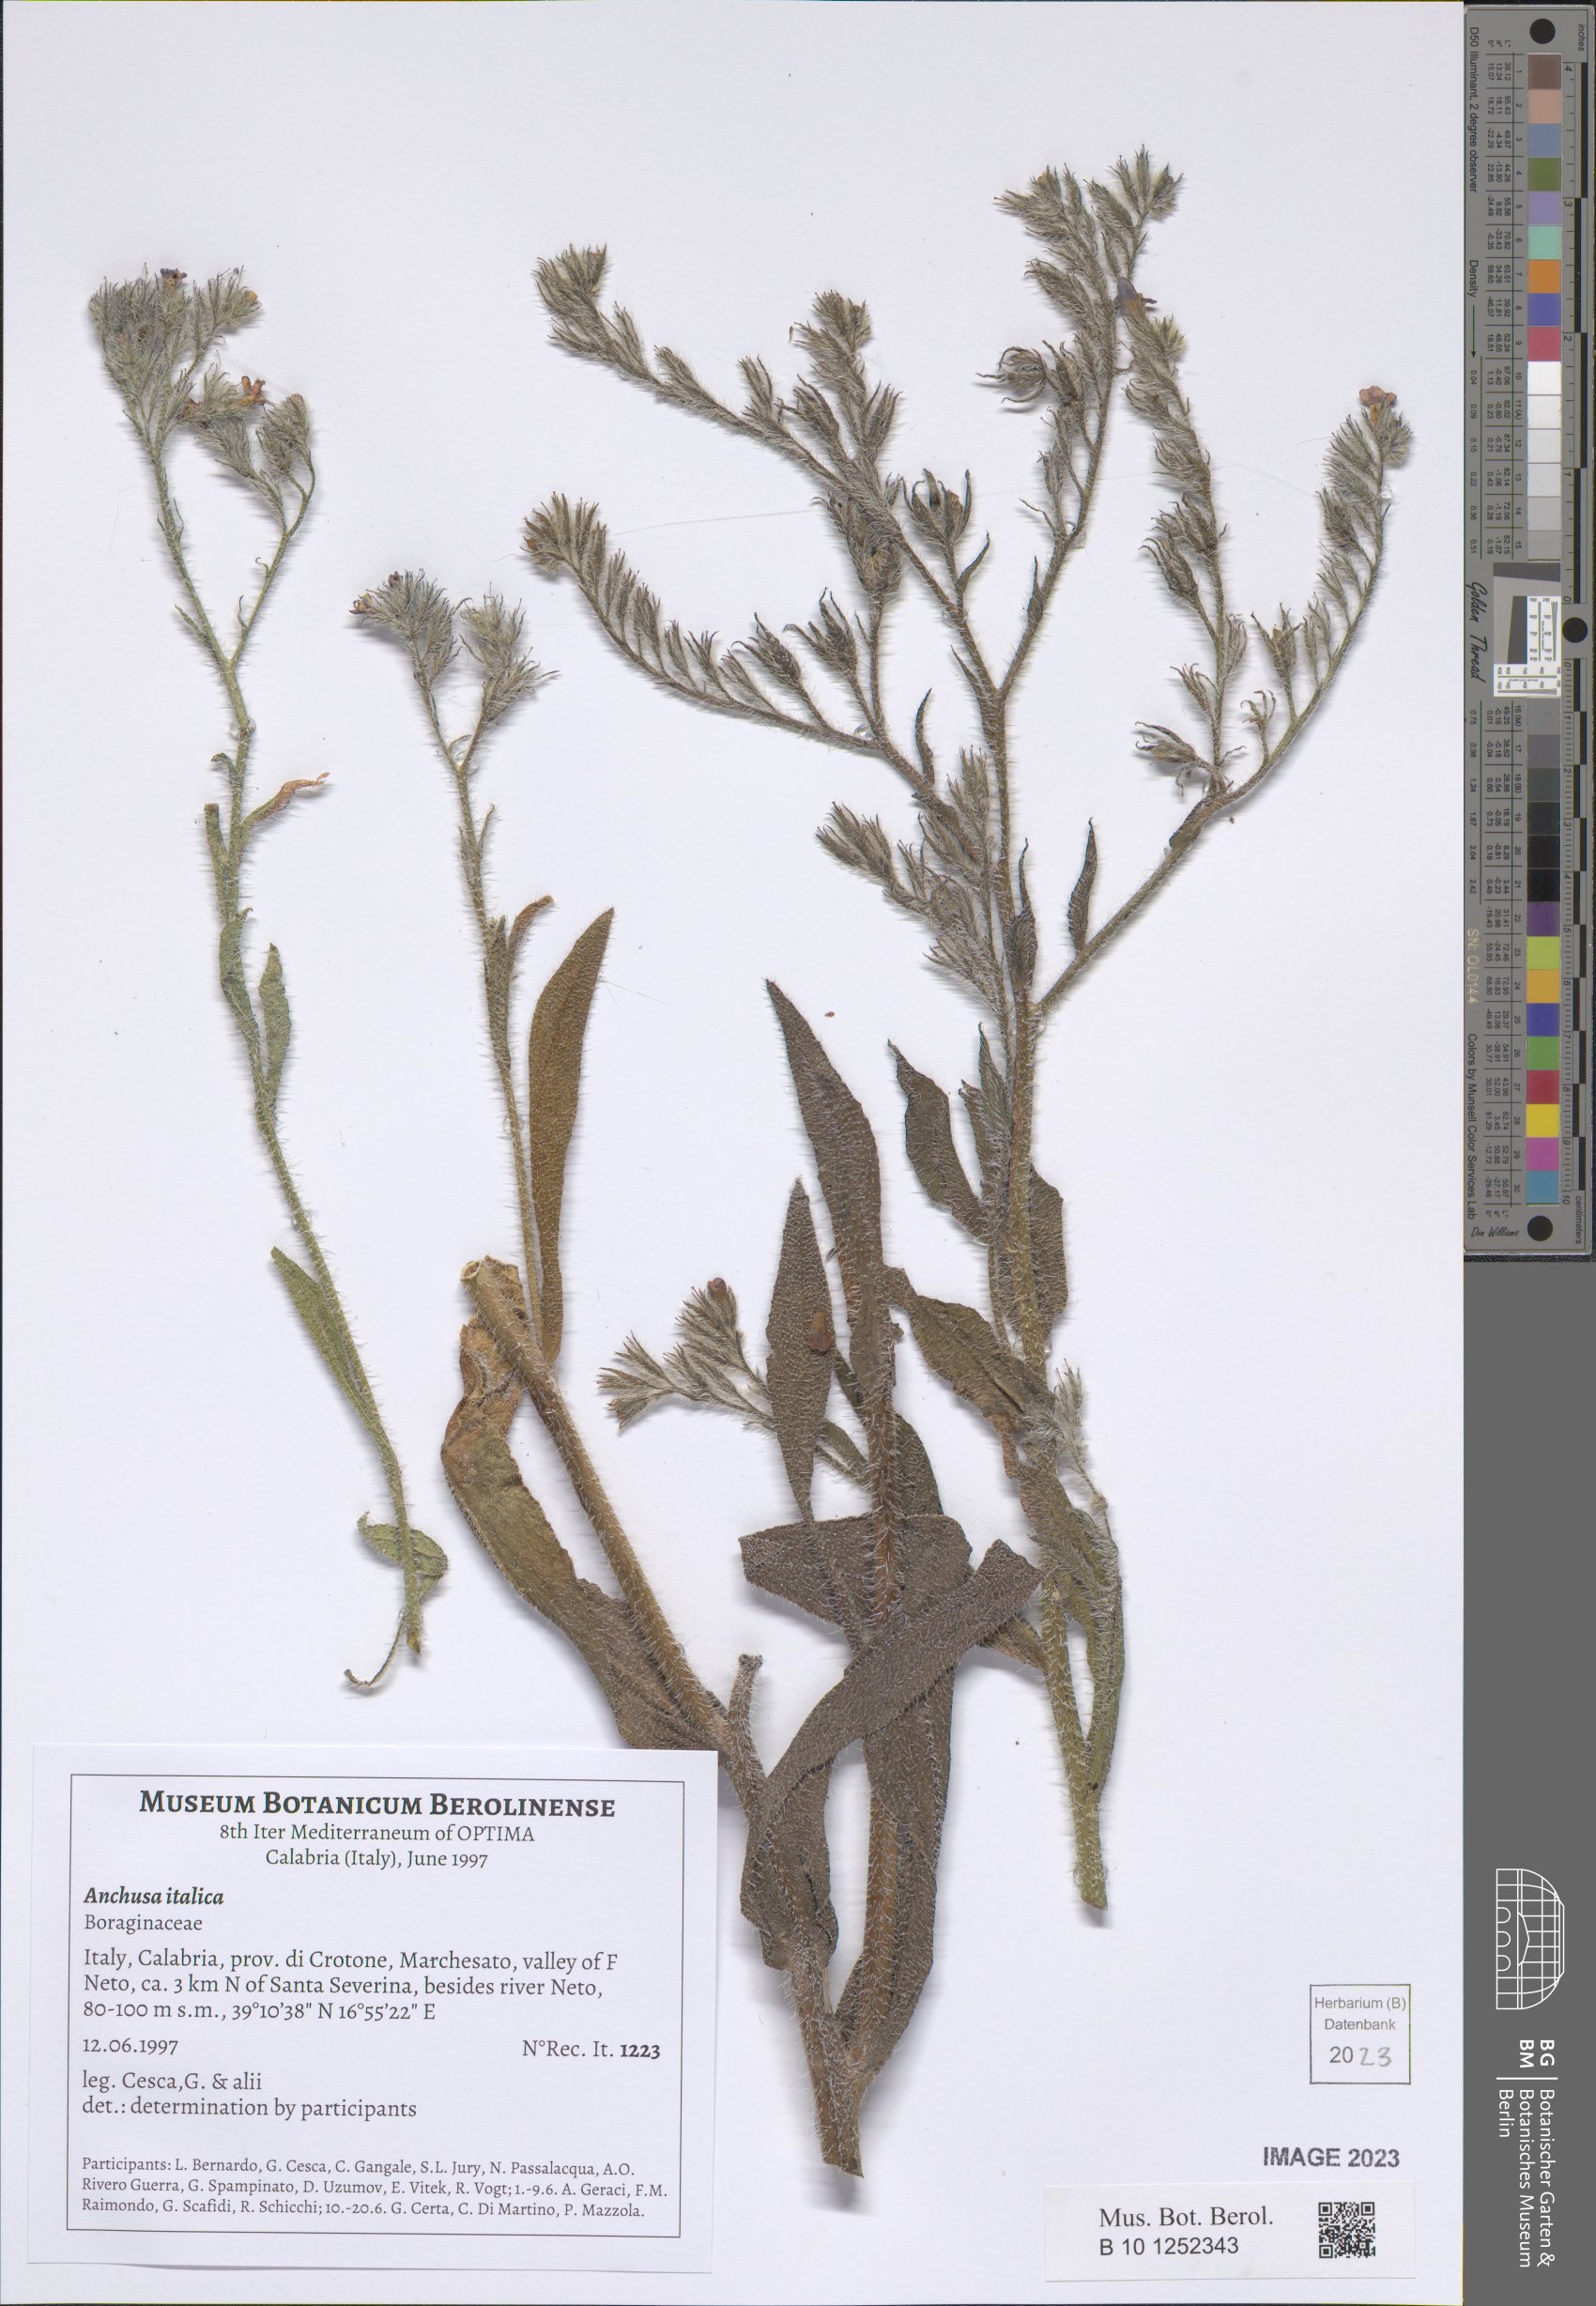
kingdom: Plantae
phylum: Tracheophyta
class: Magnoliopsida
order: Boraginales
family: Boraginaceae
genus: Anchusa
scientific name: Anchusa azurea
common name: Garden anchusa
